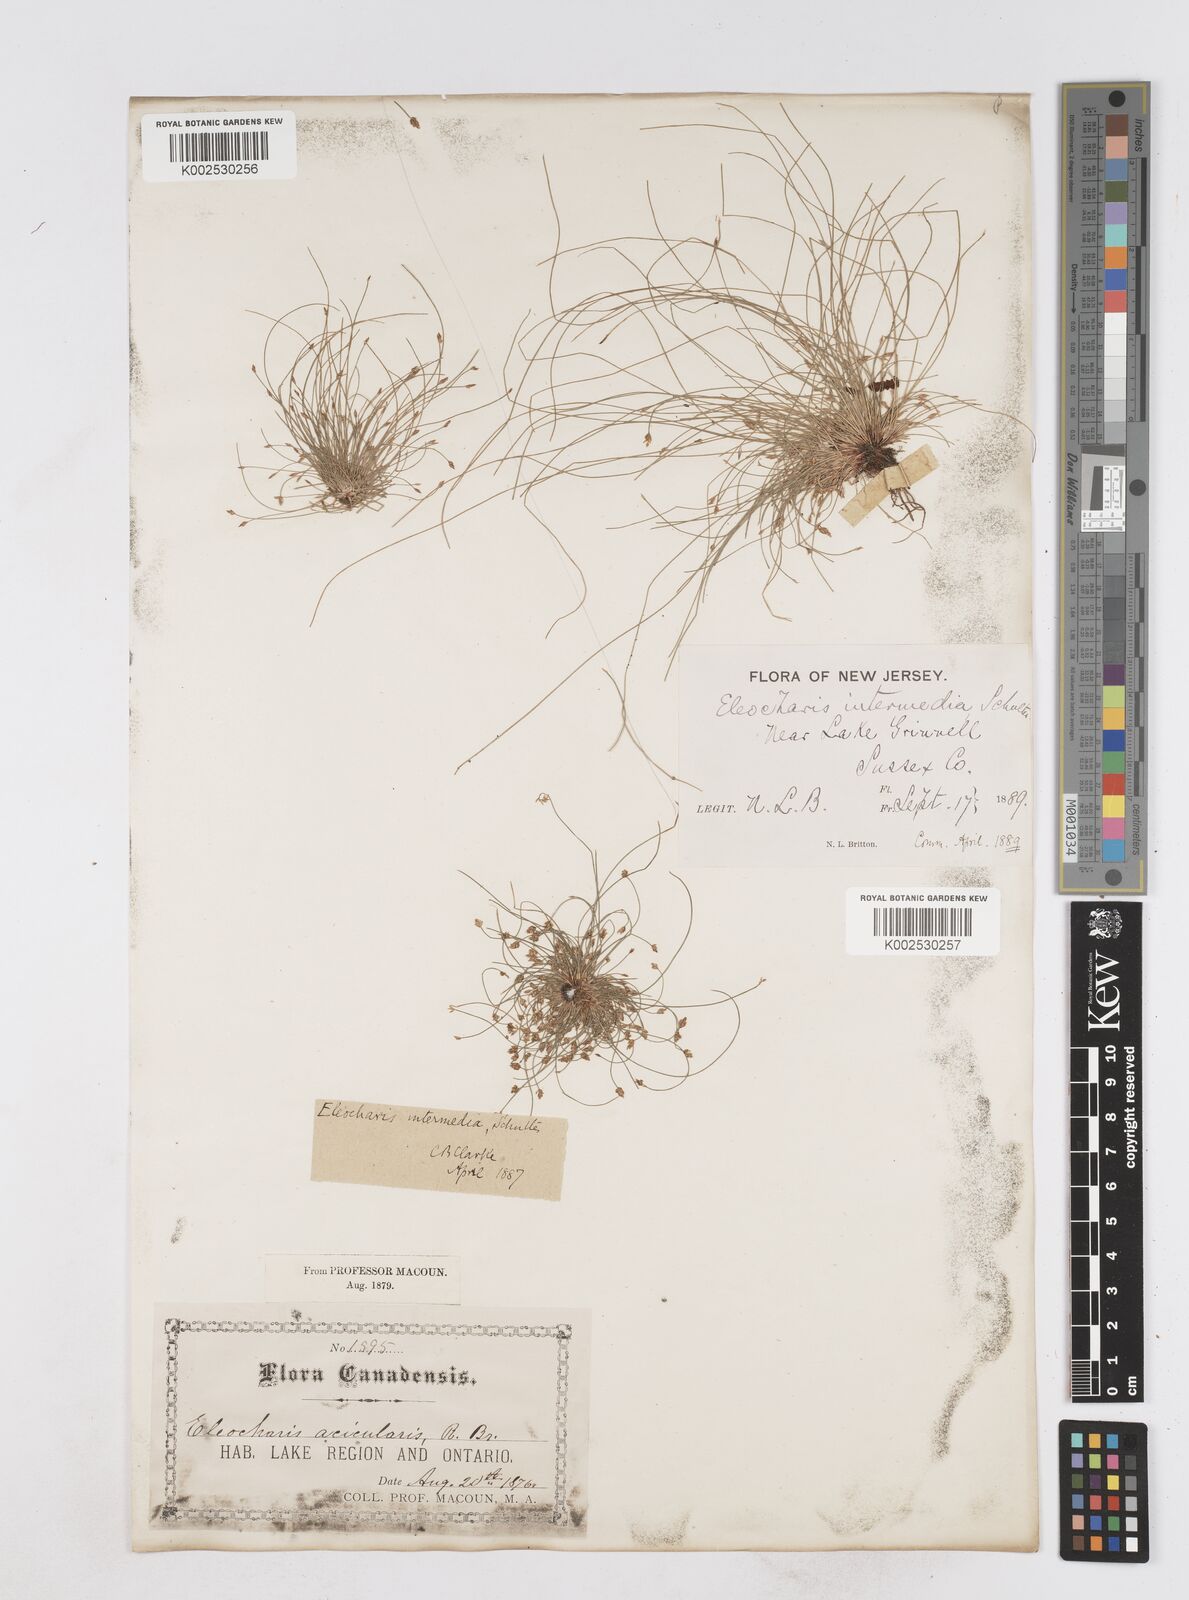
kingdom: Plantae
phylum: Tracheophyta
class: Liliopsida
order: Poales
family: Cyperaceae
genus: Eleocharis
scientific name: Eleocharis intermedia
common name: Intermediate spikerush
